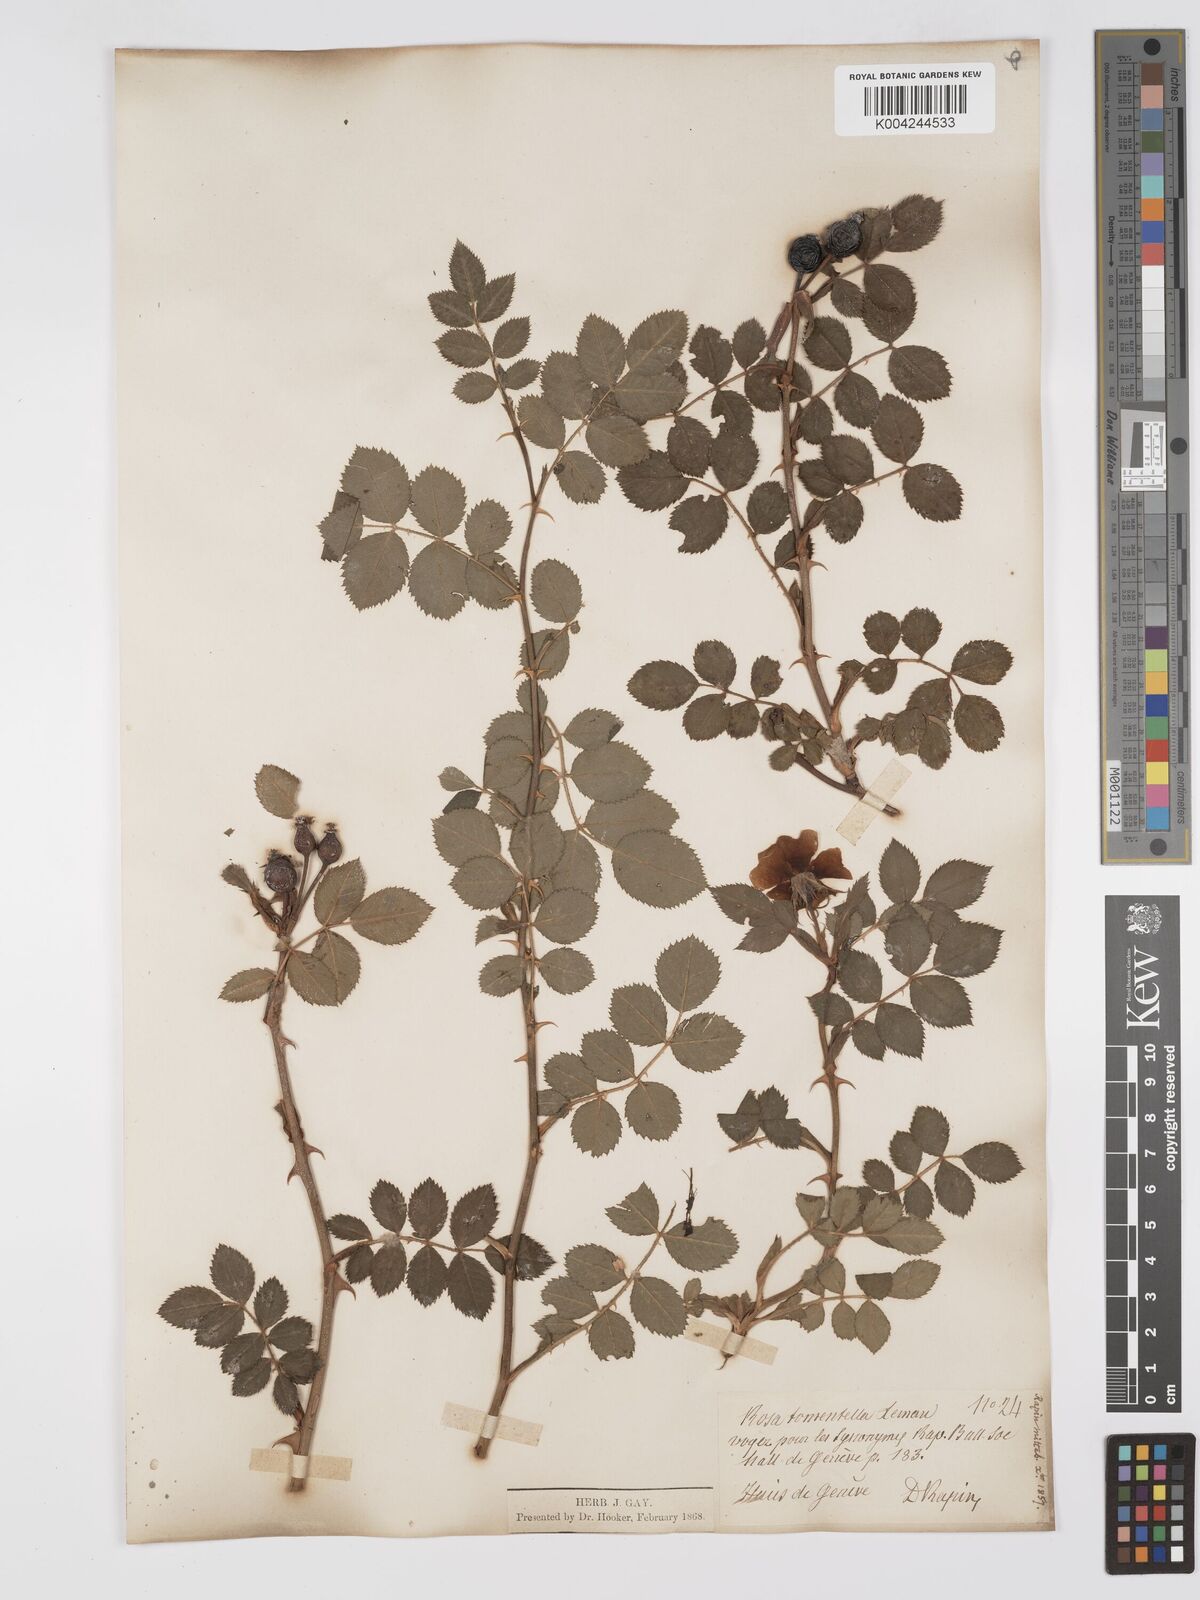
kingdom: Plantae
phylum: Tracheophyta
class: Magnoliopsida
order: Rosales
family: Rosaceae
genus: Rosa
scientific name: Rosa
